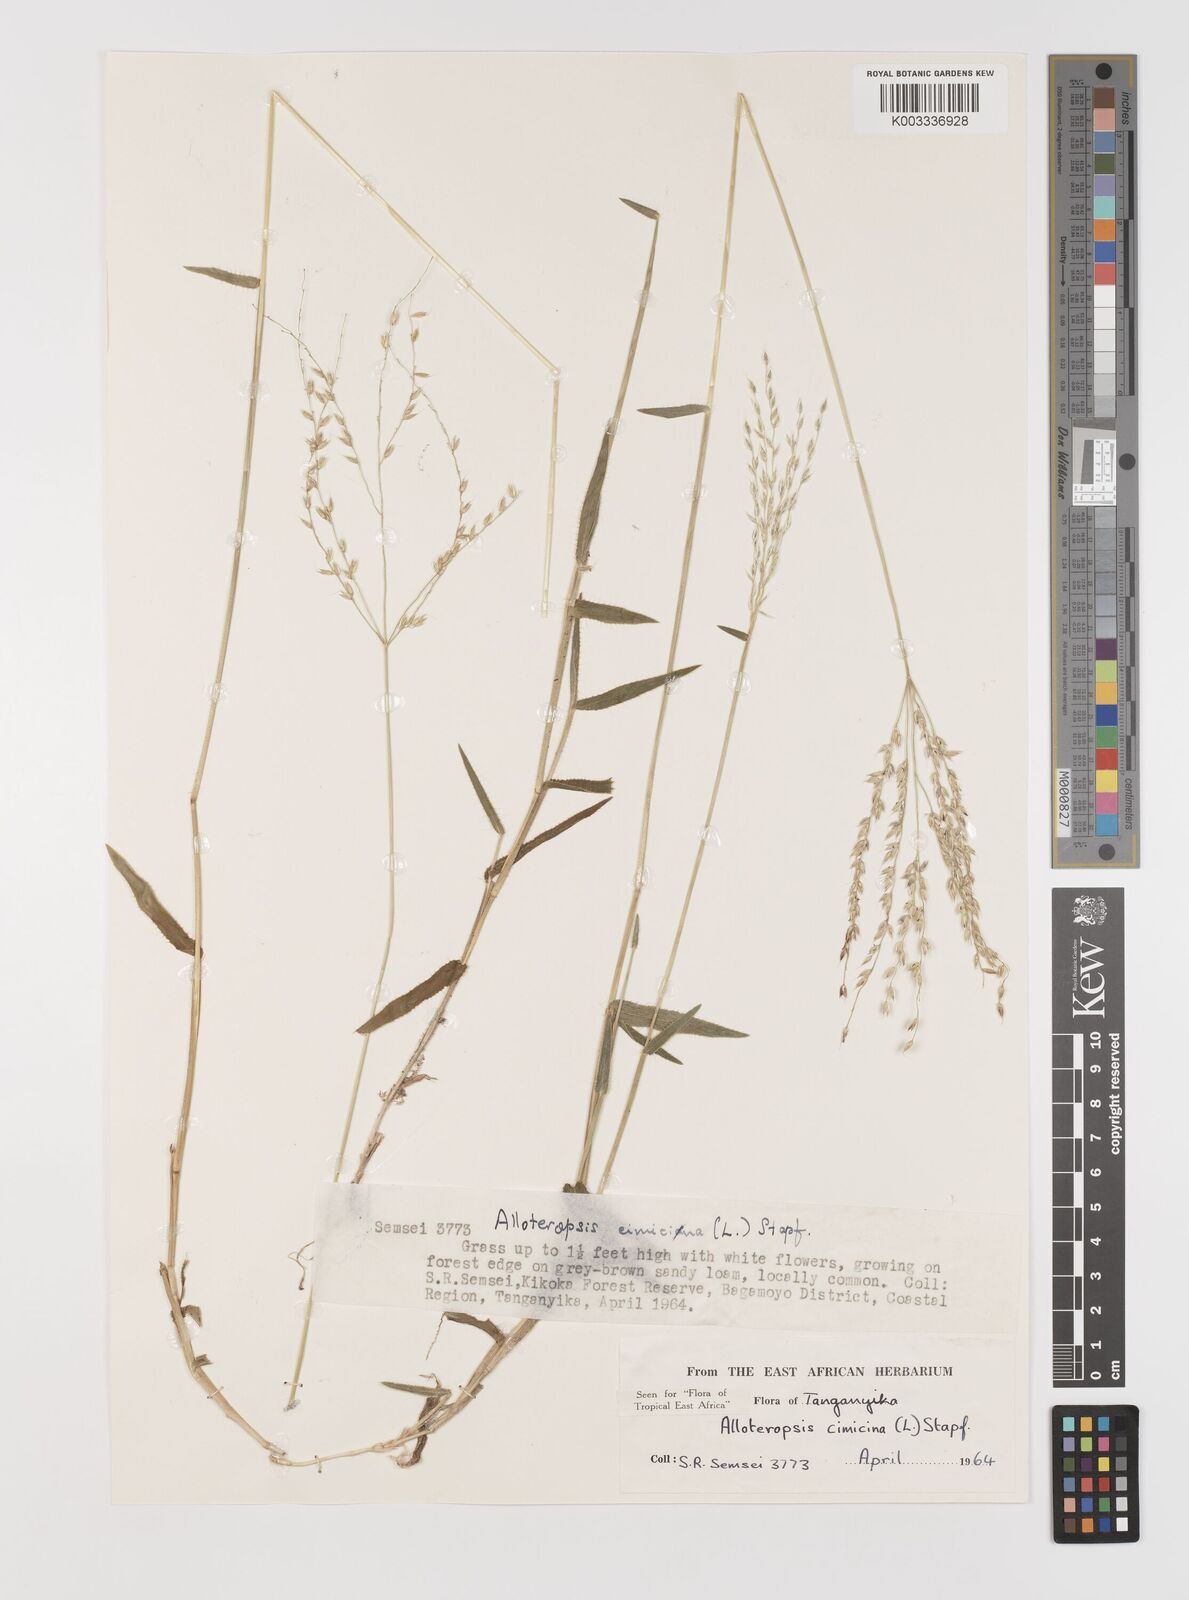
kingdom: Plantae
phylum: Tracheophyta
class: Liliopsida
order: Poales
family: Poaceae
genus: Alloteropsis
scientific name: Alloteropsis cimicina
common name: Summergrass
